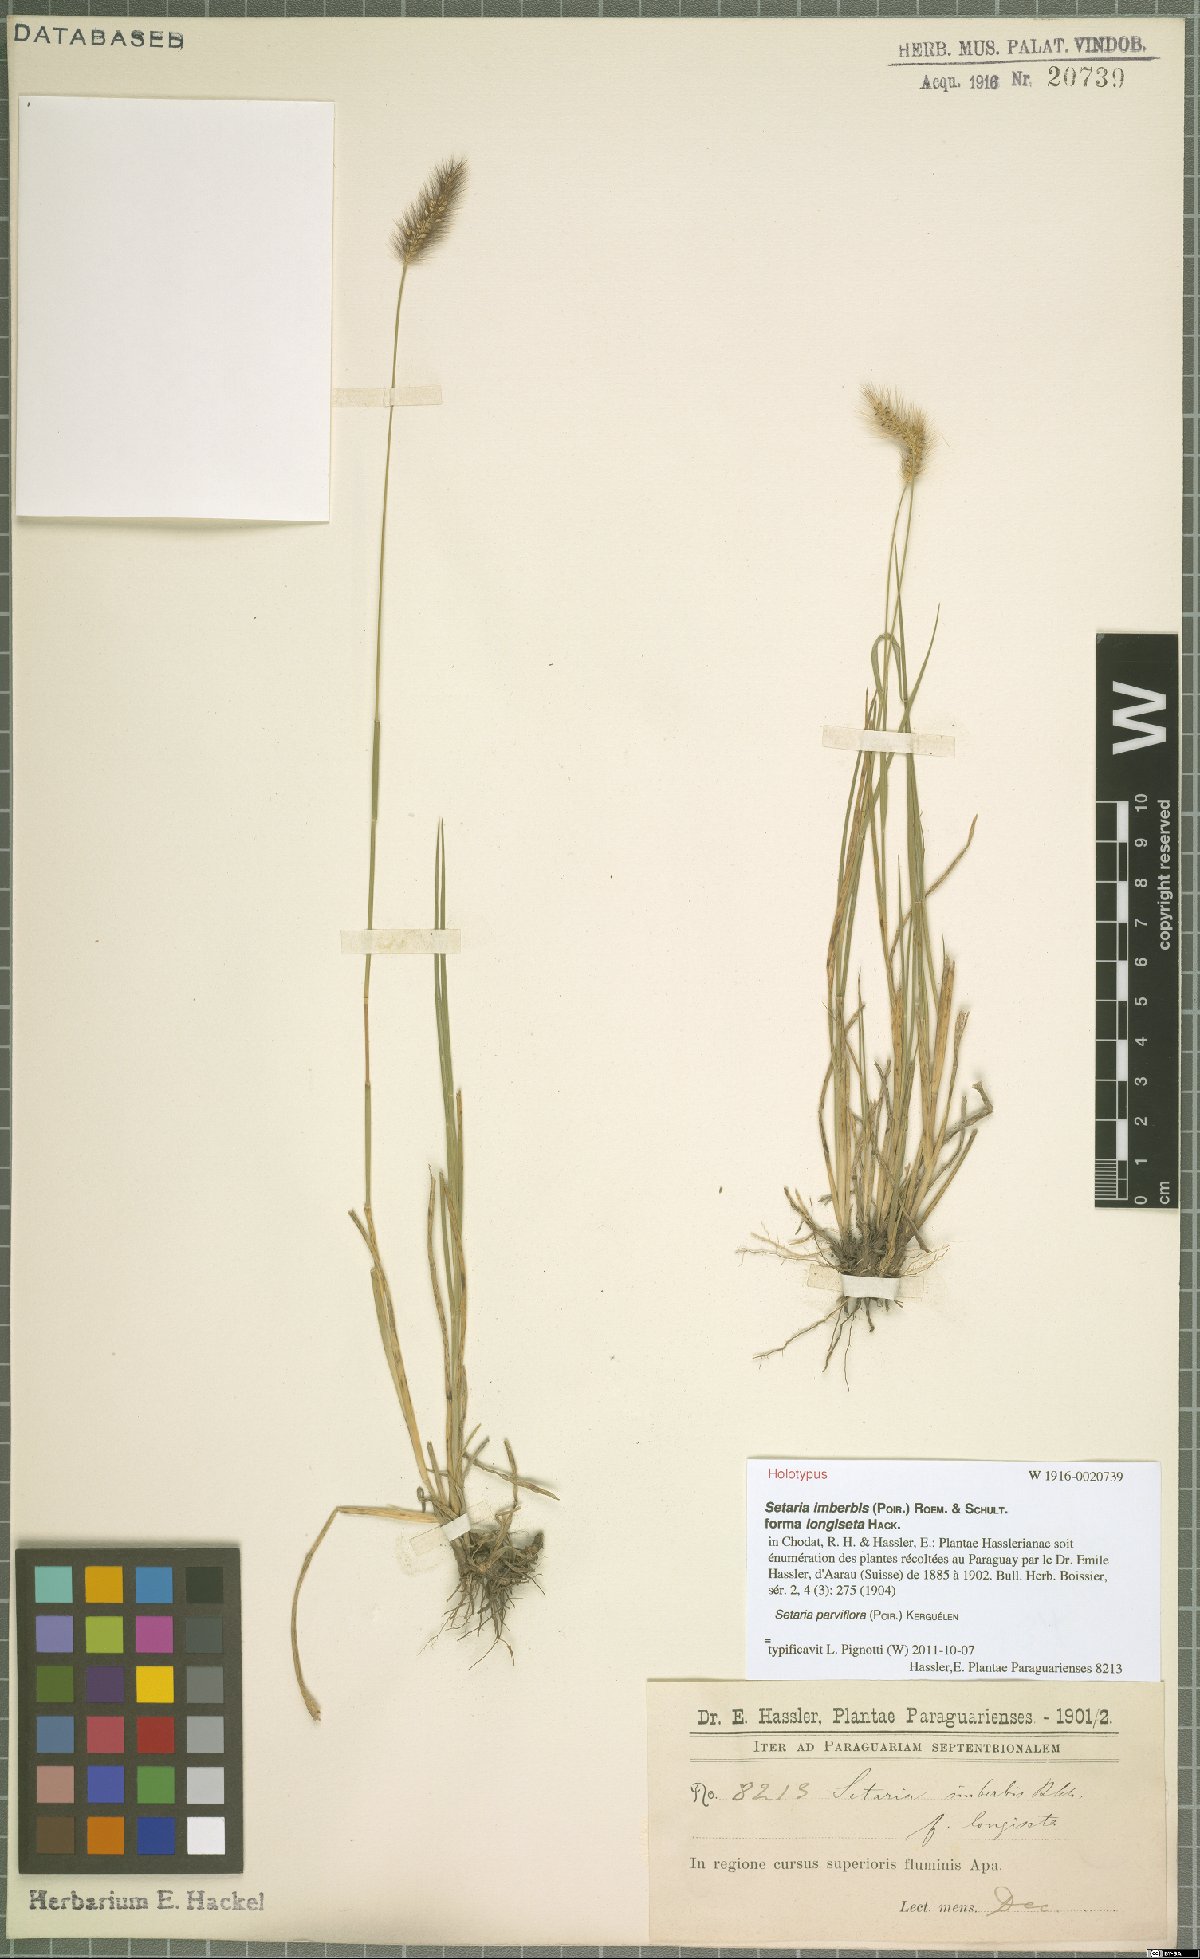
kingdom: Plantae
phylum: Tracheophyta
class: Liliopsida
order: Poales
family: Poaceae
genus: Setaria
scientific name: Setaria parviflora
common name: Knotroot bristle-grass
